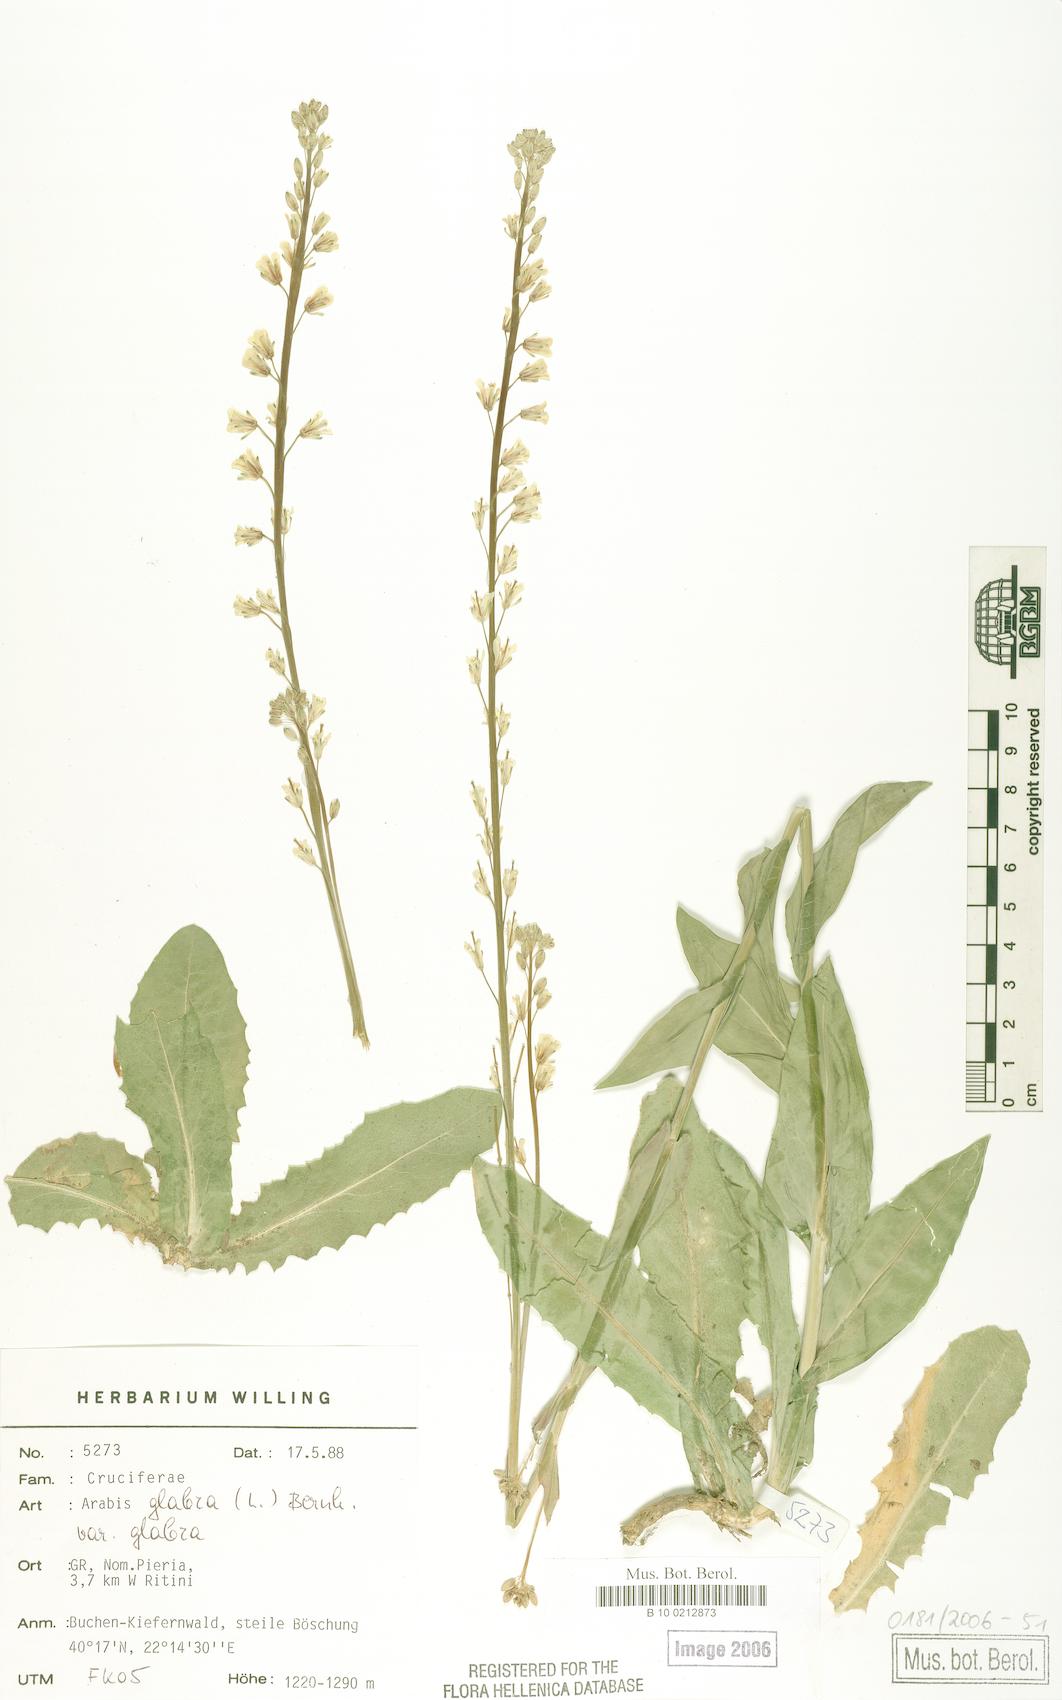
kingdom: Plantae
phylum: Tracheophyta
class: Magnoliopsida
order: Brassicales
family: Brassicaceae
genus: Turritis
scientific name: Turritis glabra
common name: Tower rockcress
